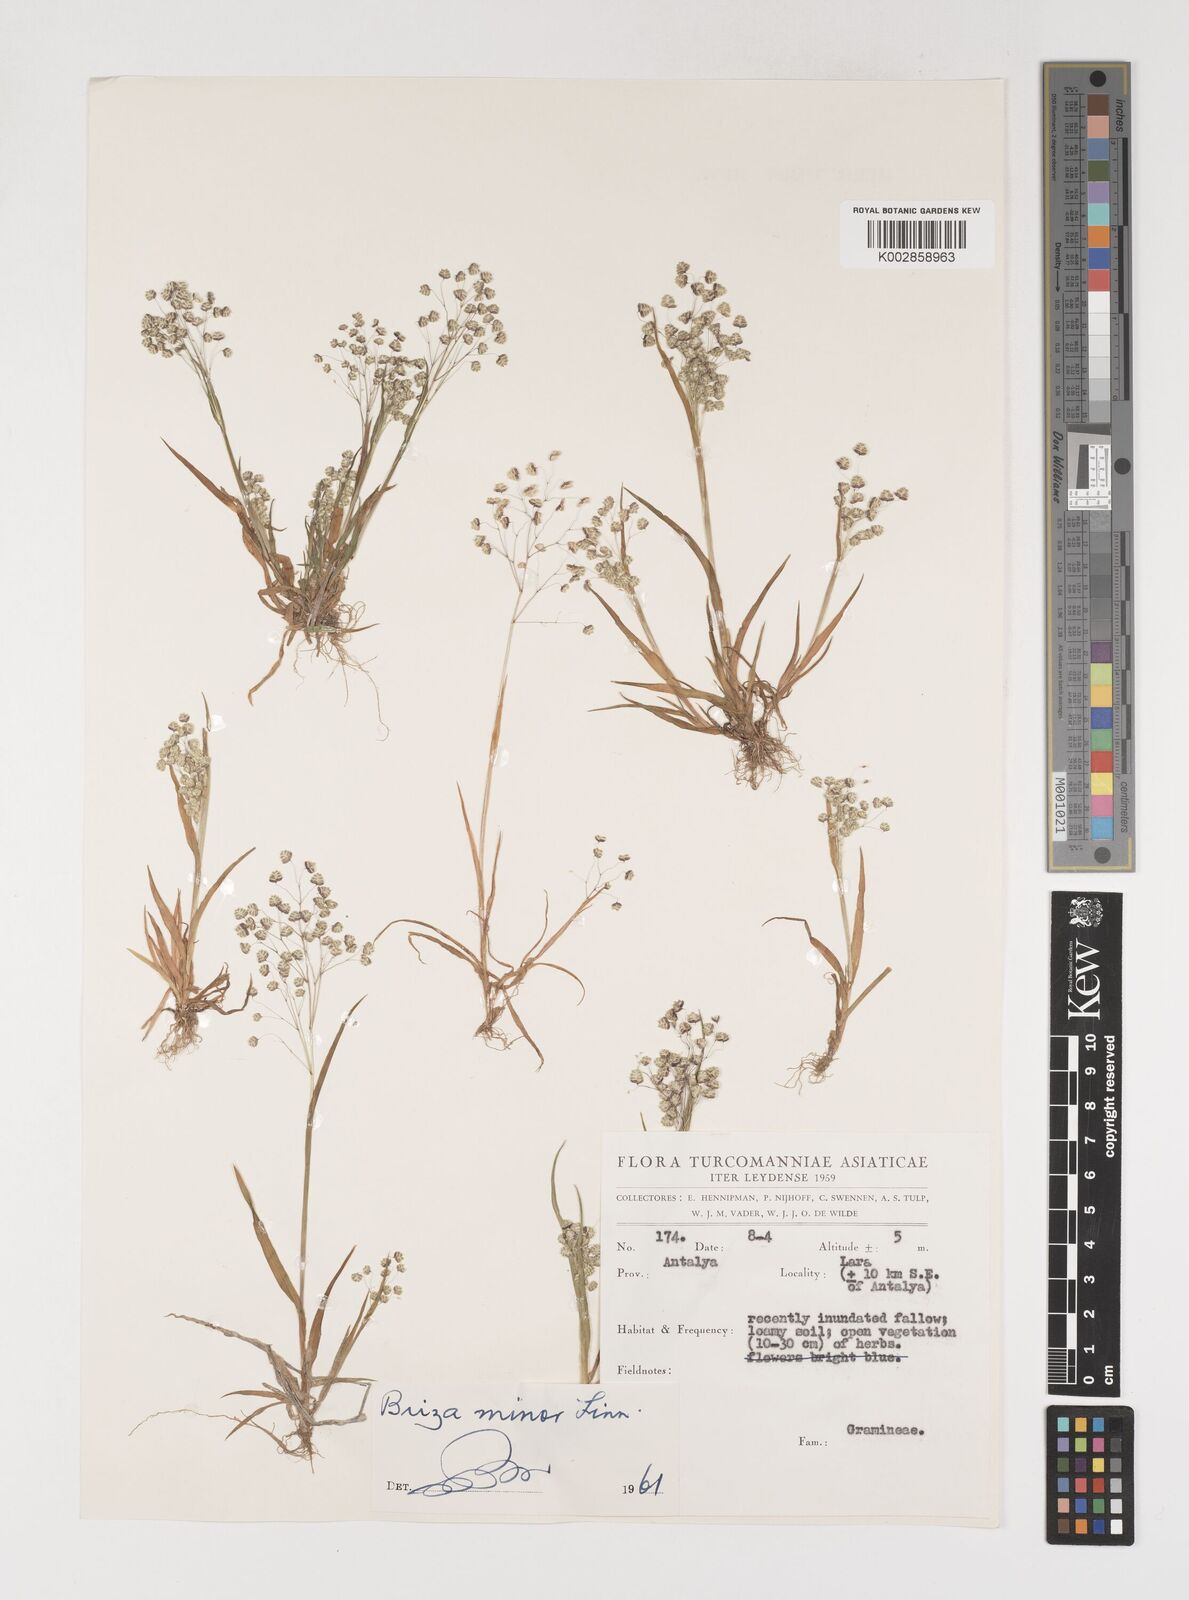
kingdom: Plantae
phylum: Tracheophyta
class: Liliopsida
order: Poales
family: Poaceae
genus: Briza
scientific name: Briza minor
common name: Lesser quaking-grass
